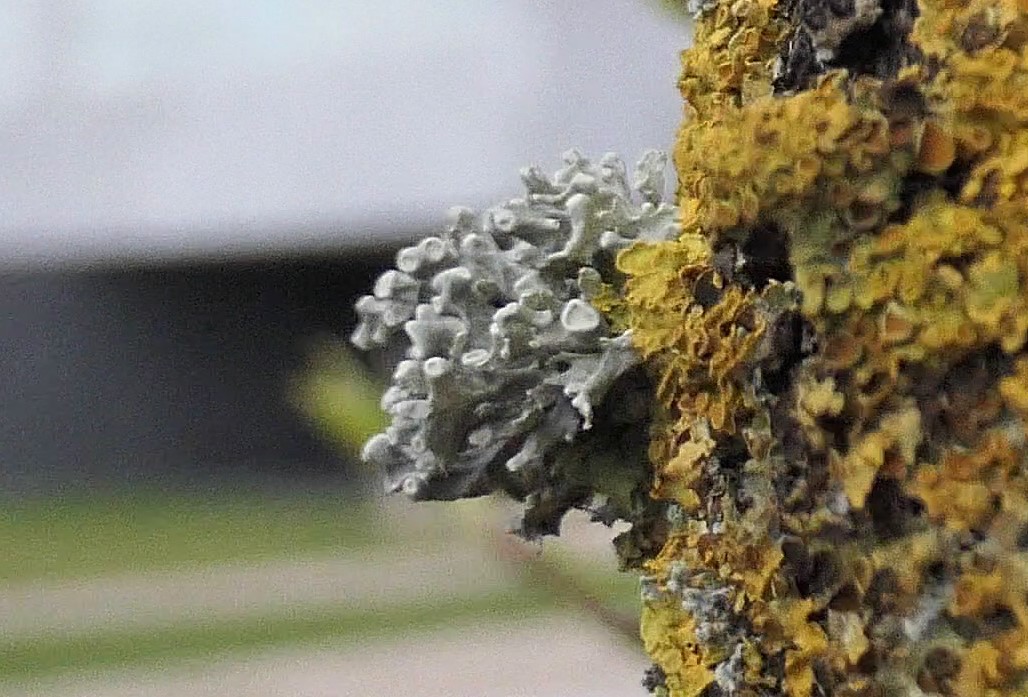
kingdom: Fungi
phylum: Ascomycota
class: Lecanoromycetes
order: Lecanorales
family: Ramalinaceae
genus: Ramalina
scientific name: Ramalina fastigiata
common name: tue-grenlav
